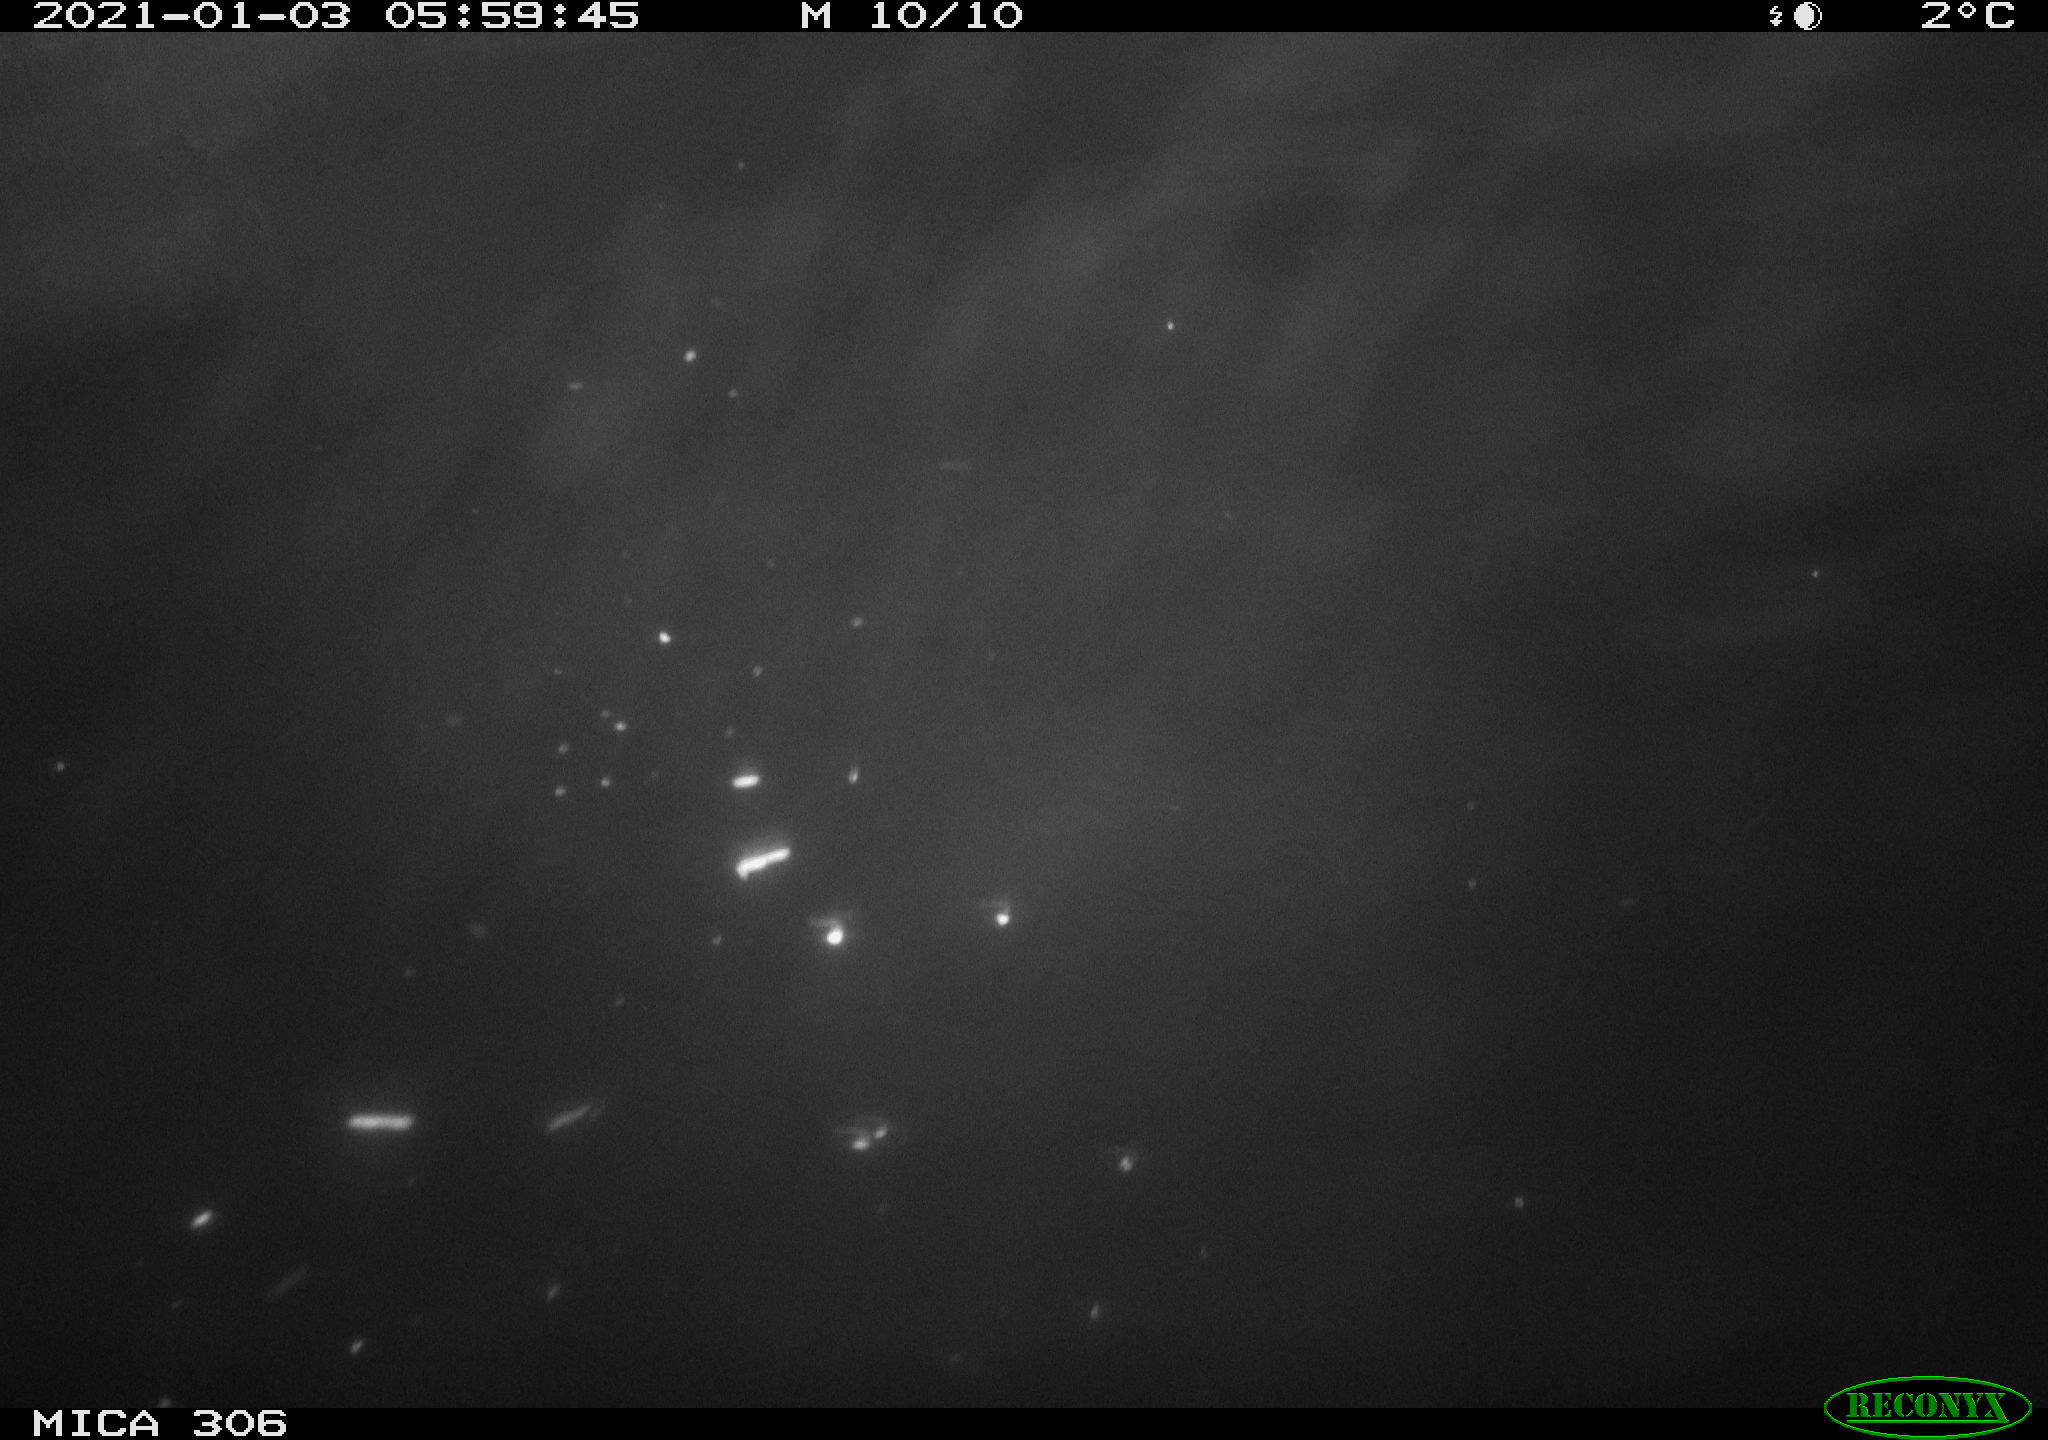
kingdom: Animalia
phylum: Chordata
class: Mammalia
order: Rodentia
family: Cricetidae
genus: Ondatra
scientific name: Ondatra zibethicus
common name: Muskrat
